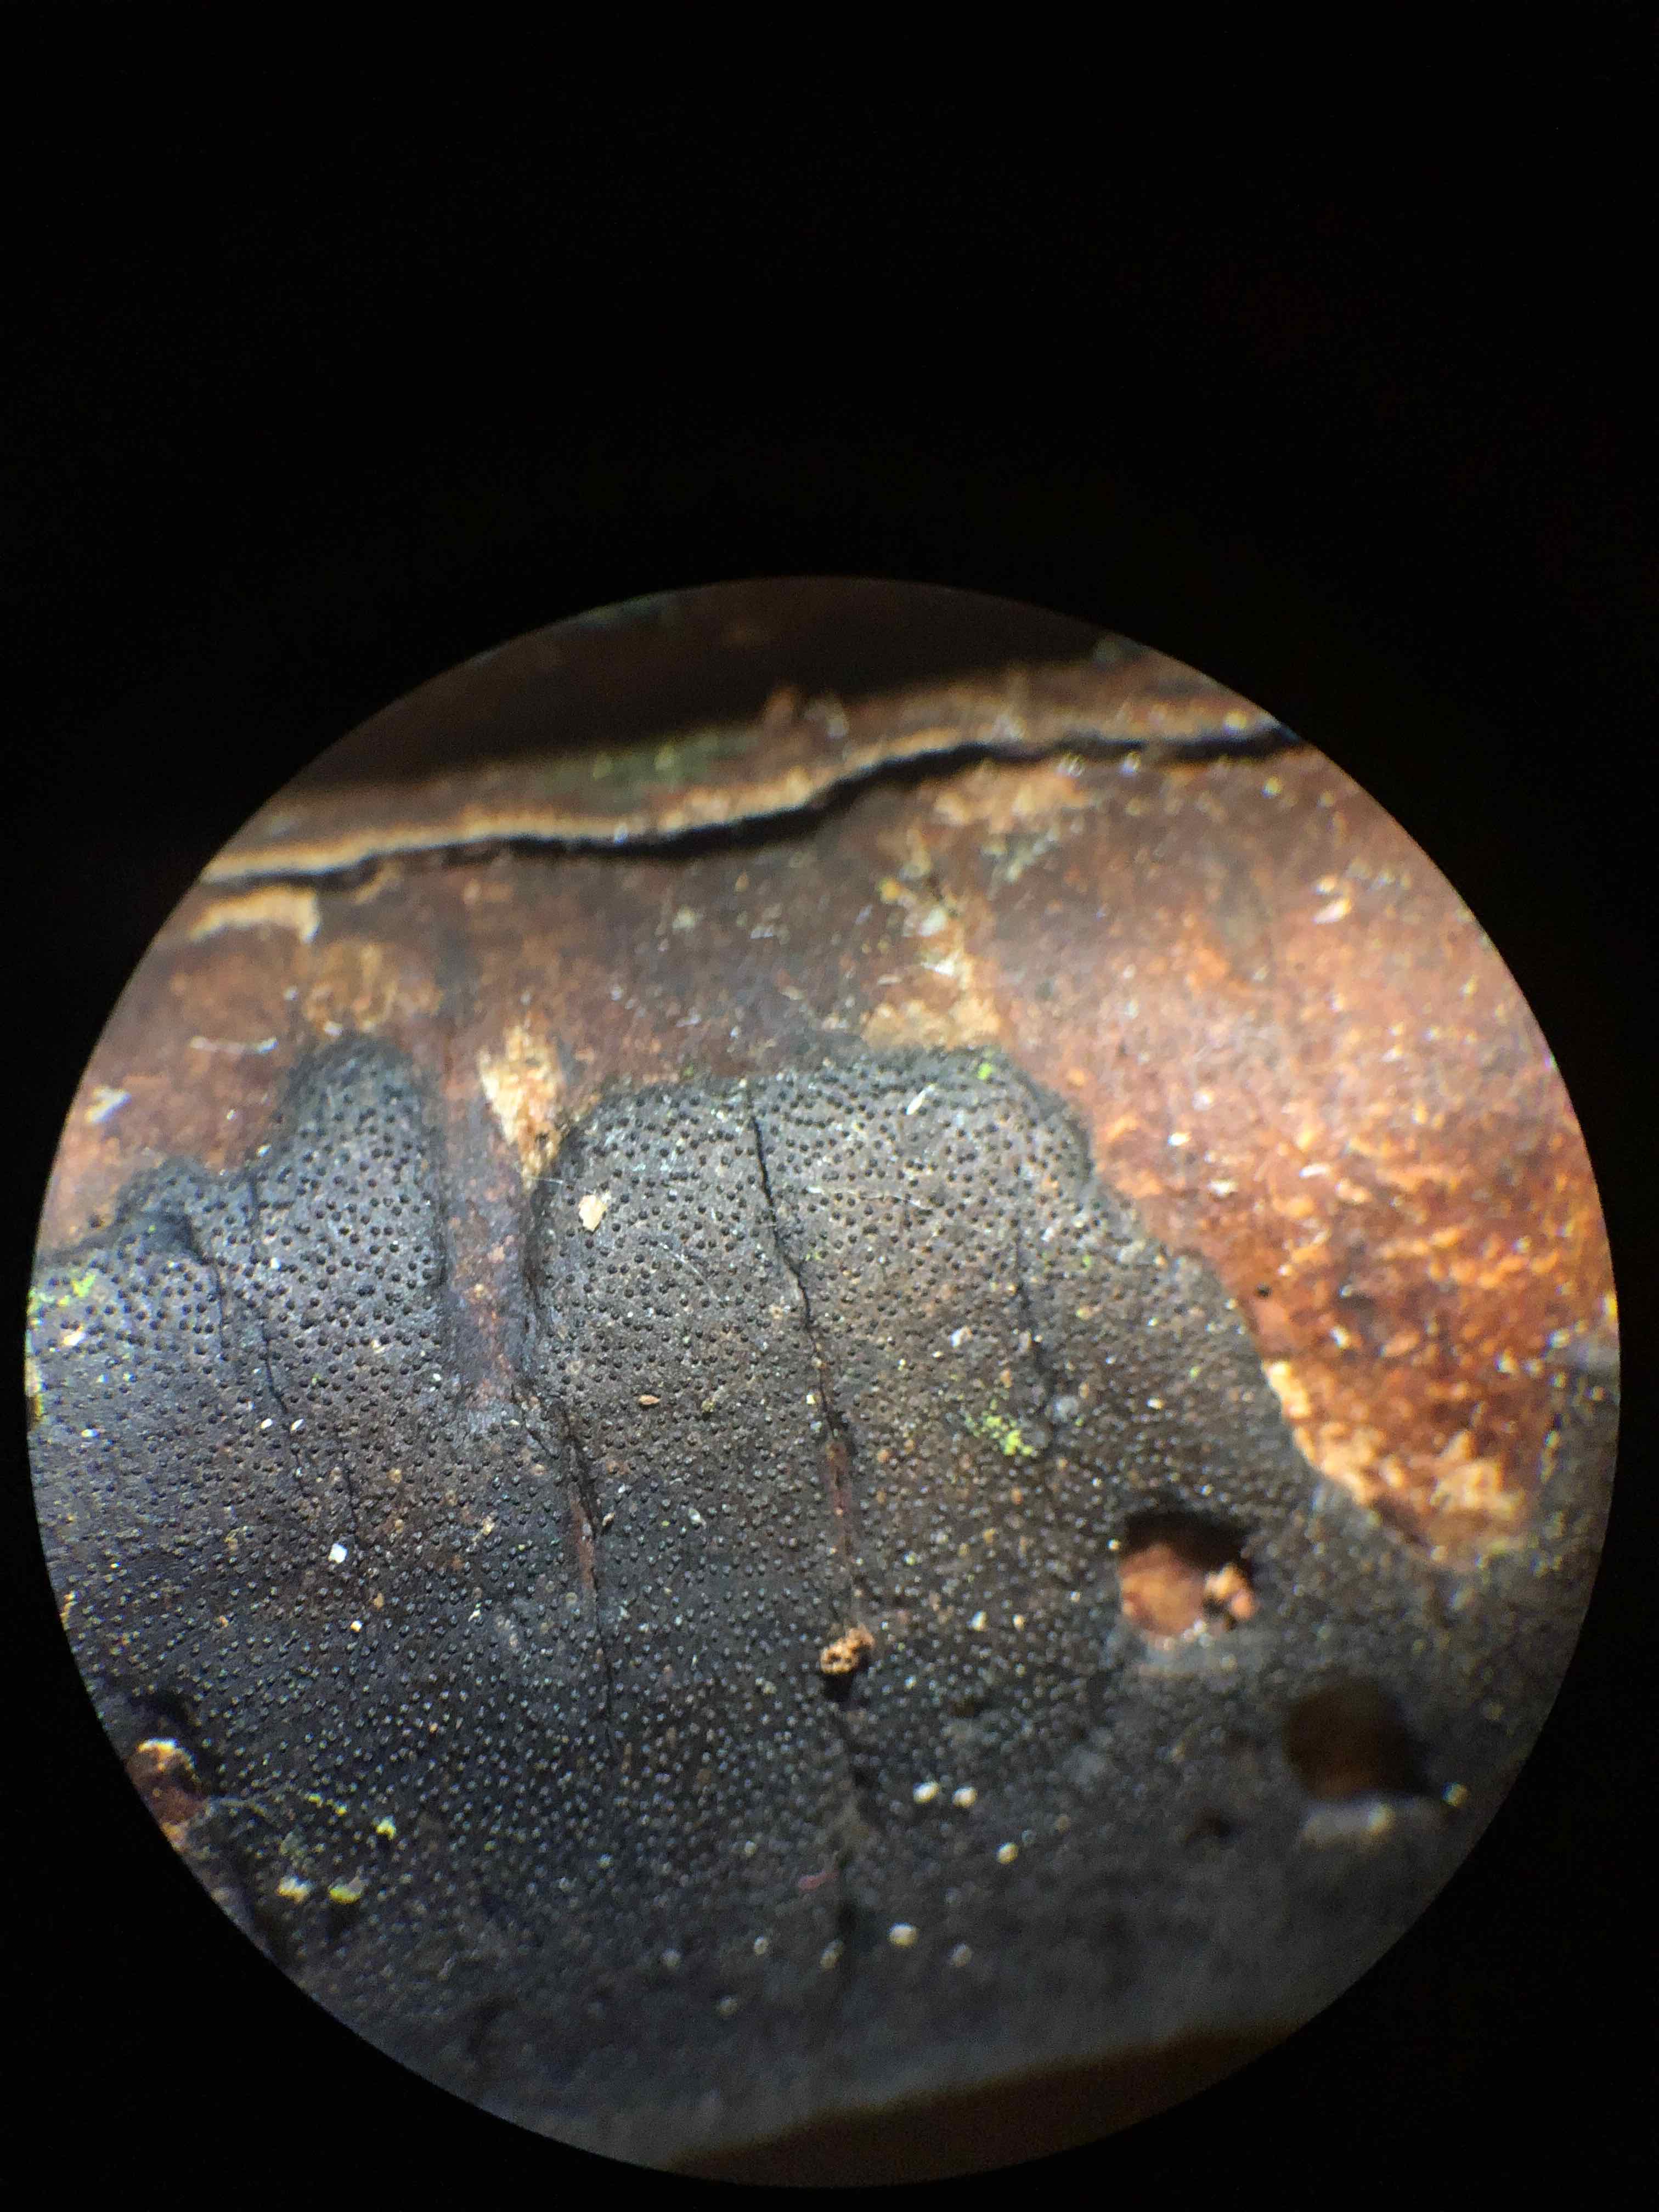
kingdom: Fungi
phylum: Ascomycota
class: Sordariomycetes
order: Xylariales
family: Diatrypaceae
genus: Diatrype
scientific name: Diatrype
